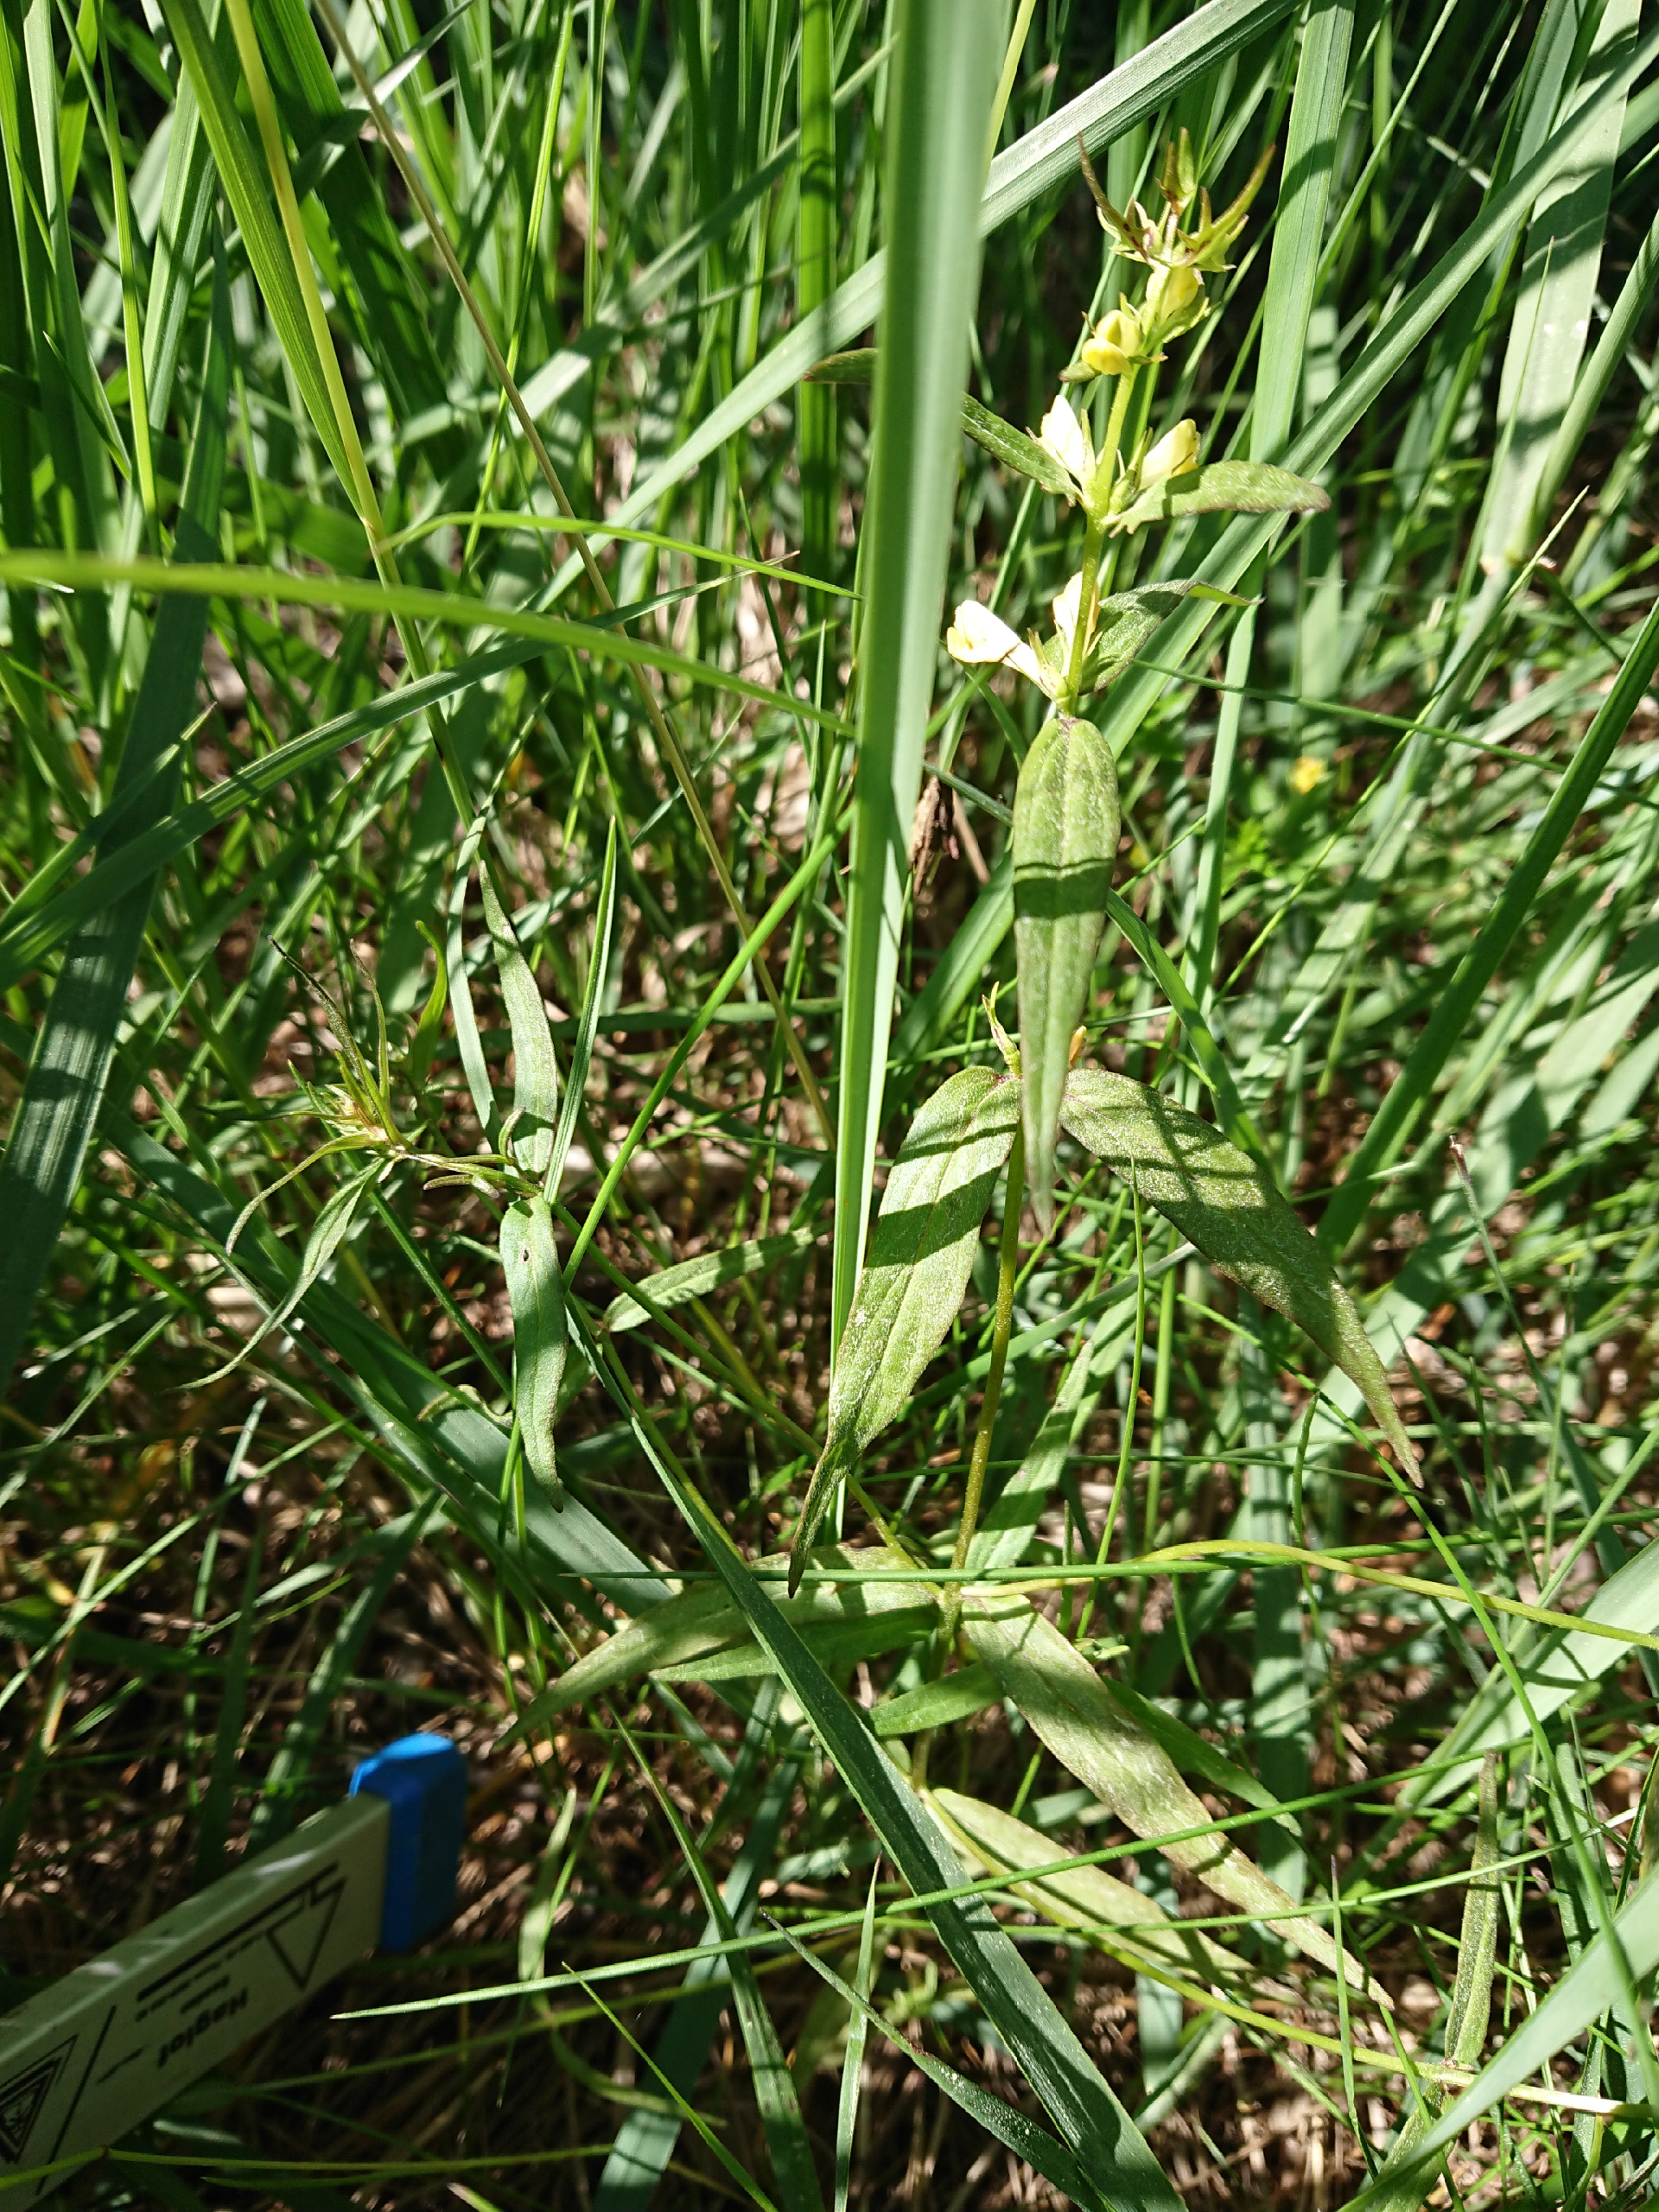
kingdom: Plantae
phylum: Tracheophyta
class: Magnoliopsida
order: Lamiales
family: Orobanchaceae
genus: Melampyrum
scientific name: Melampyrum pratense
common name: Almindelig kohvede
